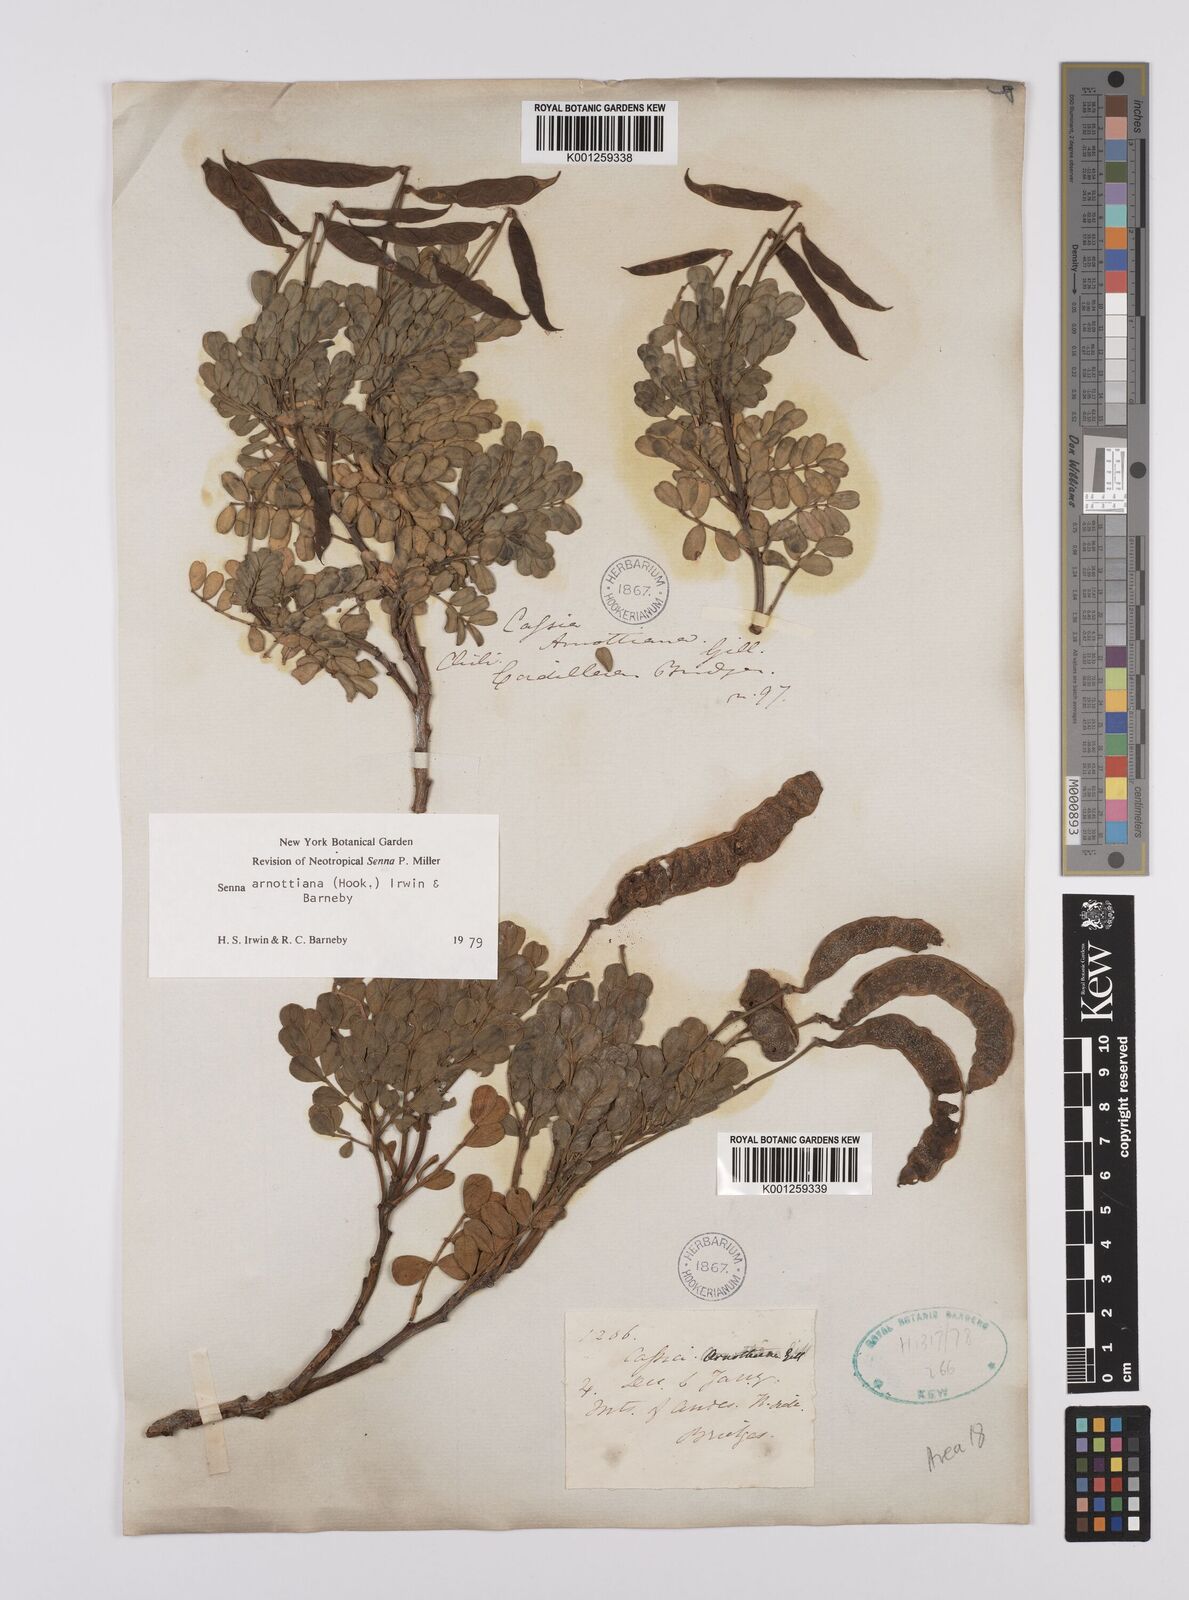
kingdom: Plantae
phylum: Tracheophyta
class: Magnoliopsida
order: Fabales
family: Fabaceae
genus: Senna
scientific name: Senna arnottiana
